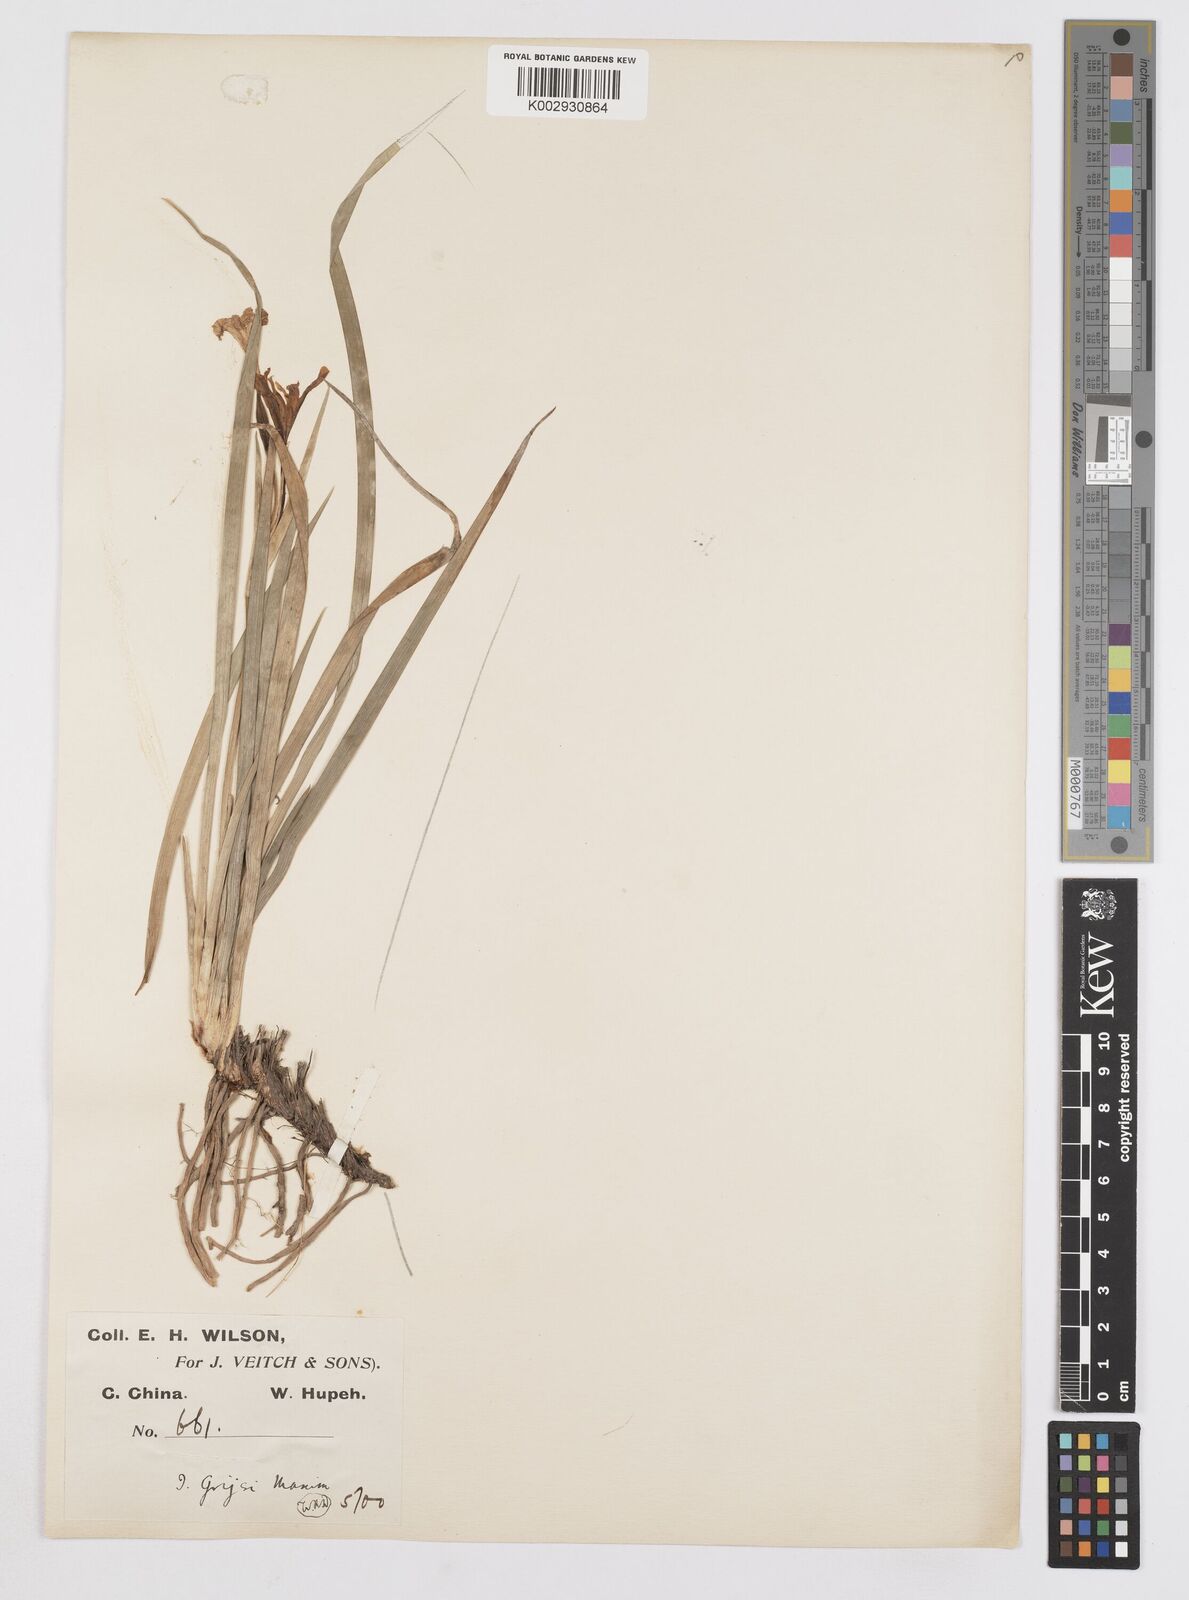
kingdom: Plantae
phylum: Tracheophyta
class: Liliopsida
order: Asparagales
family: Iridaceae
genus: Iris
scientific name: Iris speculatrix
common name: Small-flower iris
